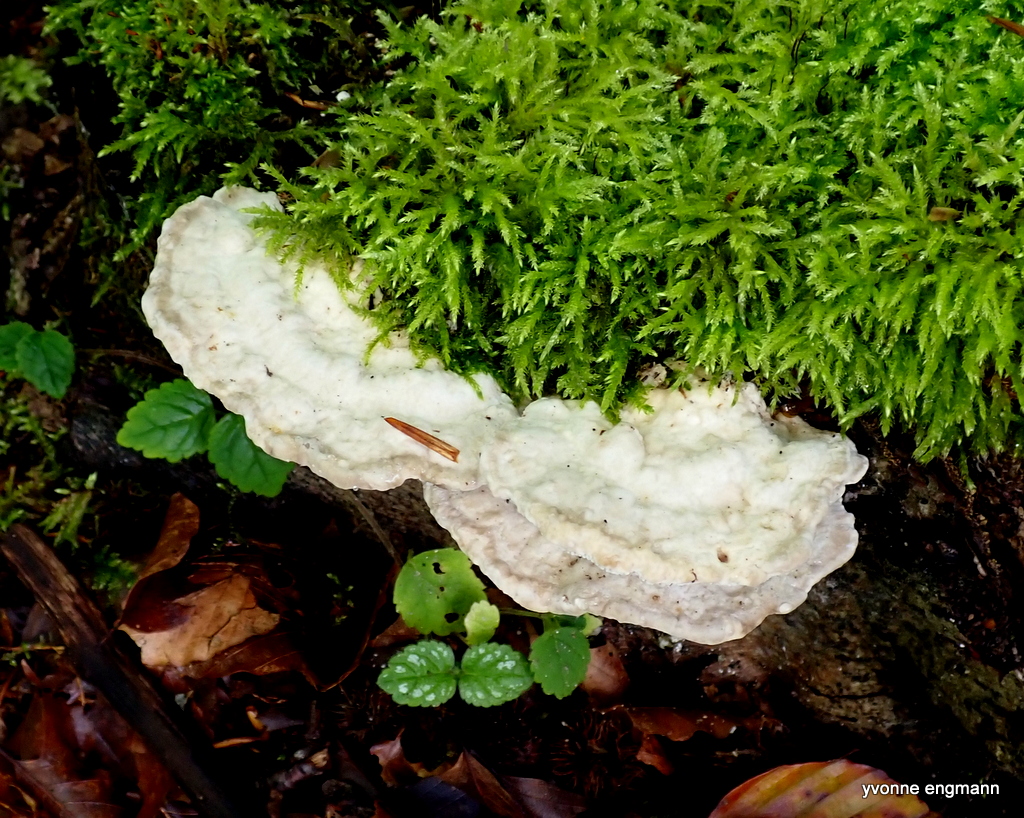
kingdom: Fungi
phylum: Basidiomycota
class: Agaricomycetes
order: Polyporales
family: Polyporaceae
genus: Trametes
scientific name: Trametes gibbosa
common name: puklet læderporesvamp
